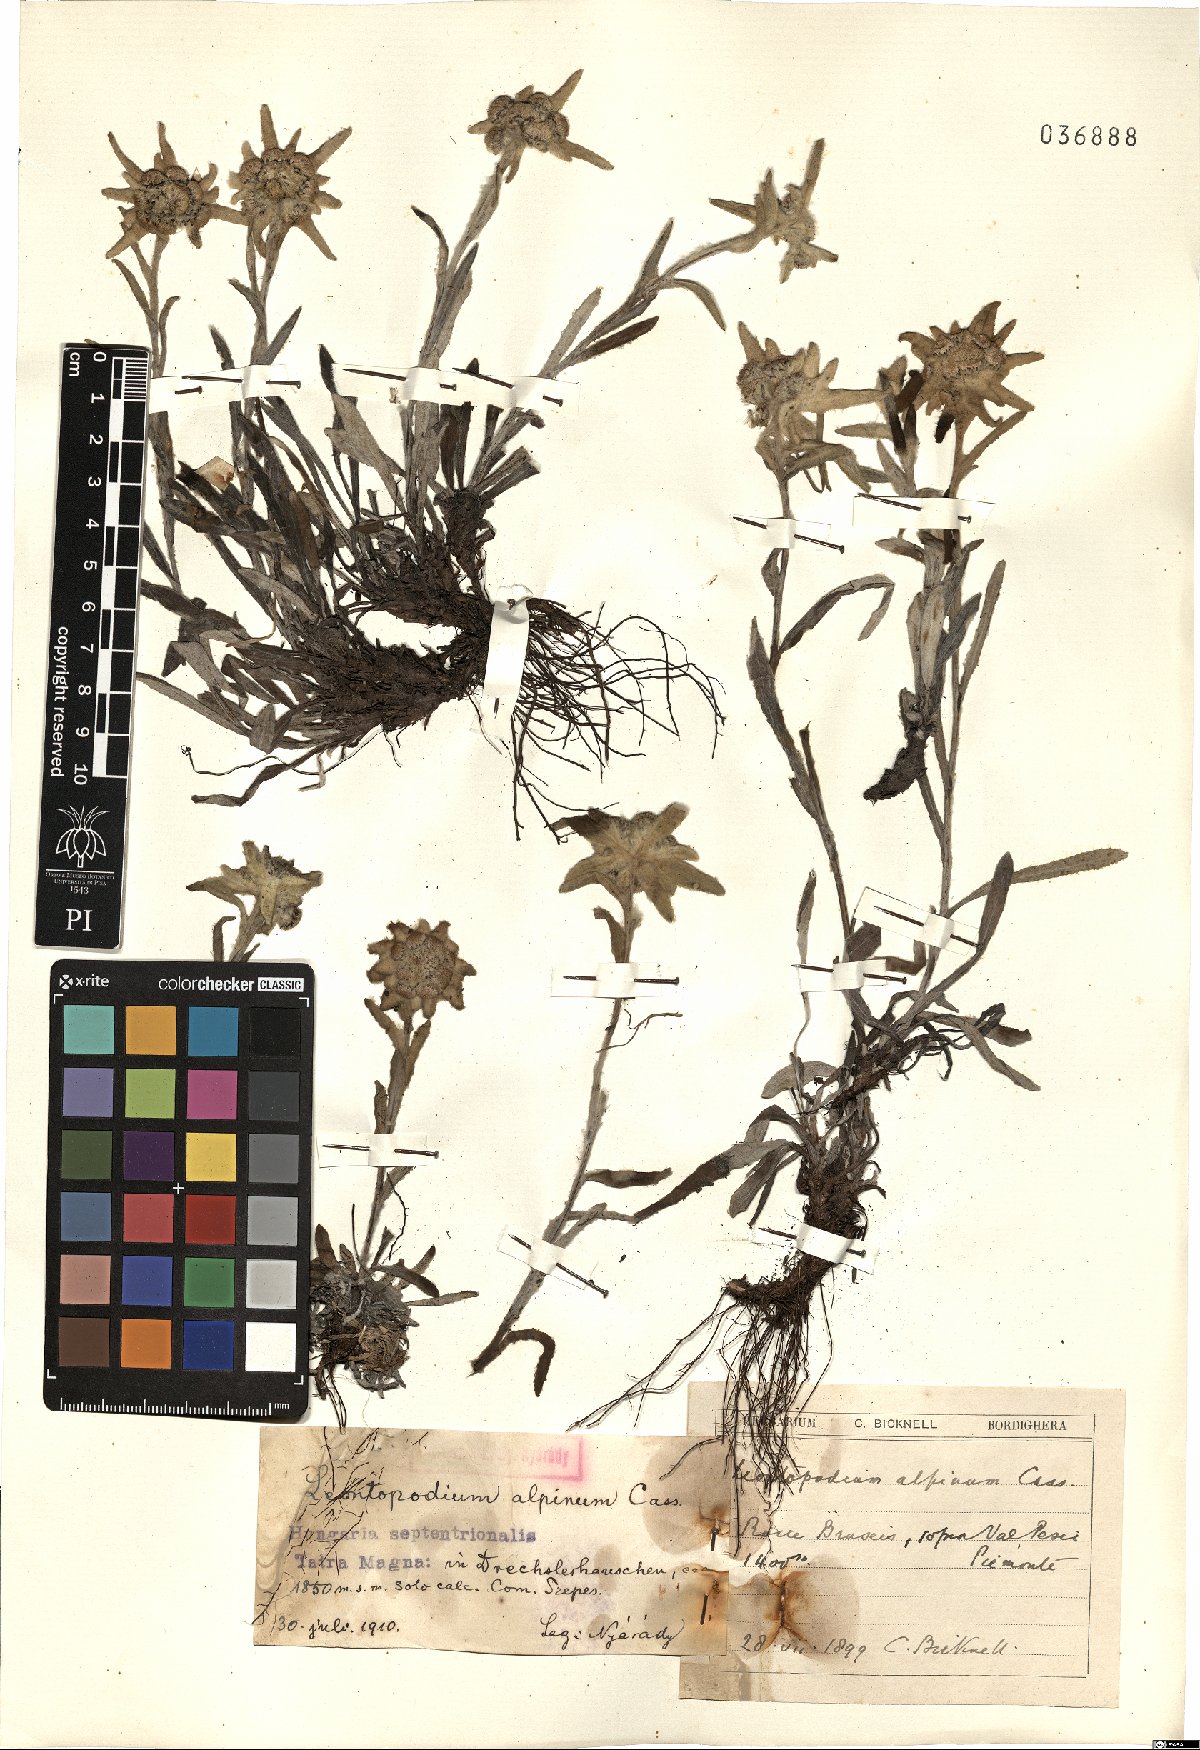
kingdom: Plantae
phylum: Tracheophyta
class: Magnoliopsida
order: Asterales
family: Asteraceae
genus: Leontopodium
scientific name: Leontopodium nivale
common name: Edelweiss
